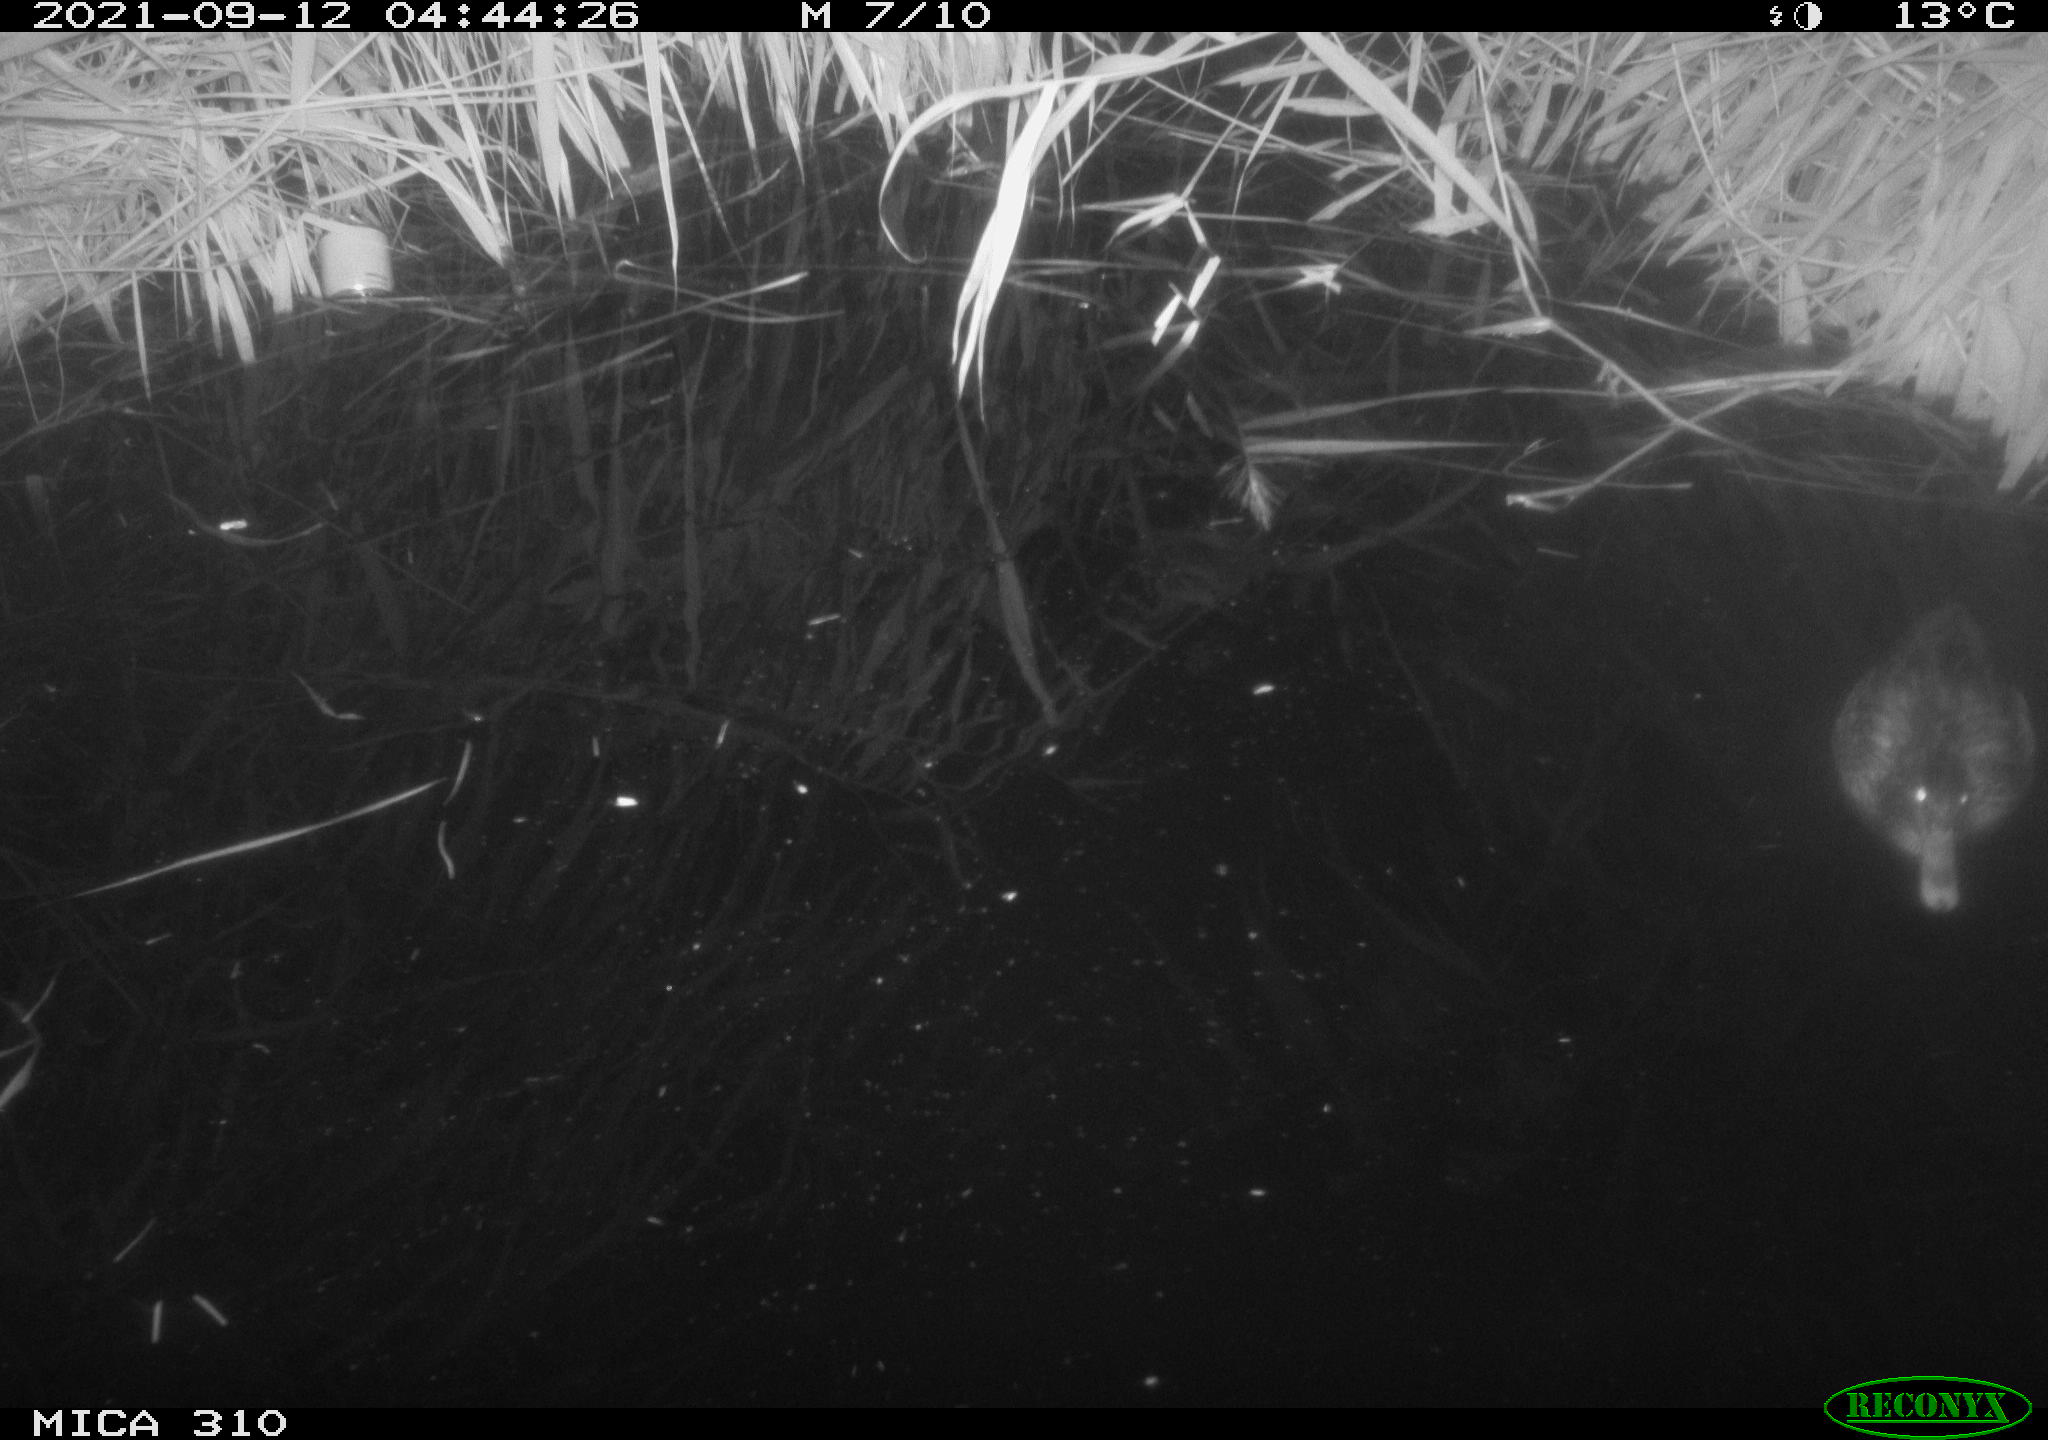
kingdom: Animalia
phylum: Chordata
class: Aves
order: Anseriformes
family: Anatidae
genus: Mareca
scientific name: Mareca strepera
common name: Gadwall
